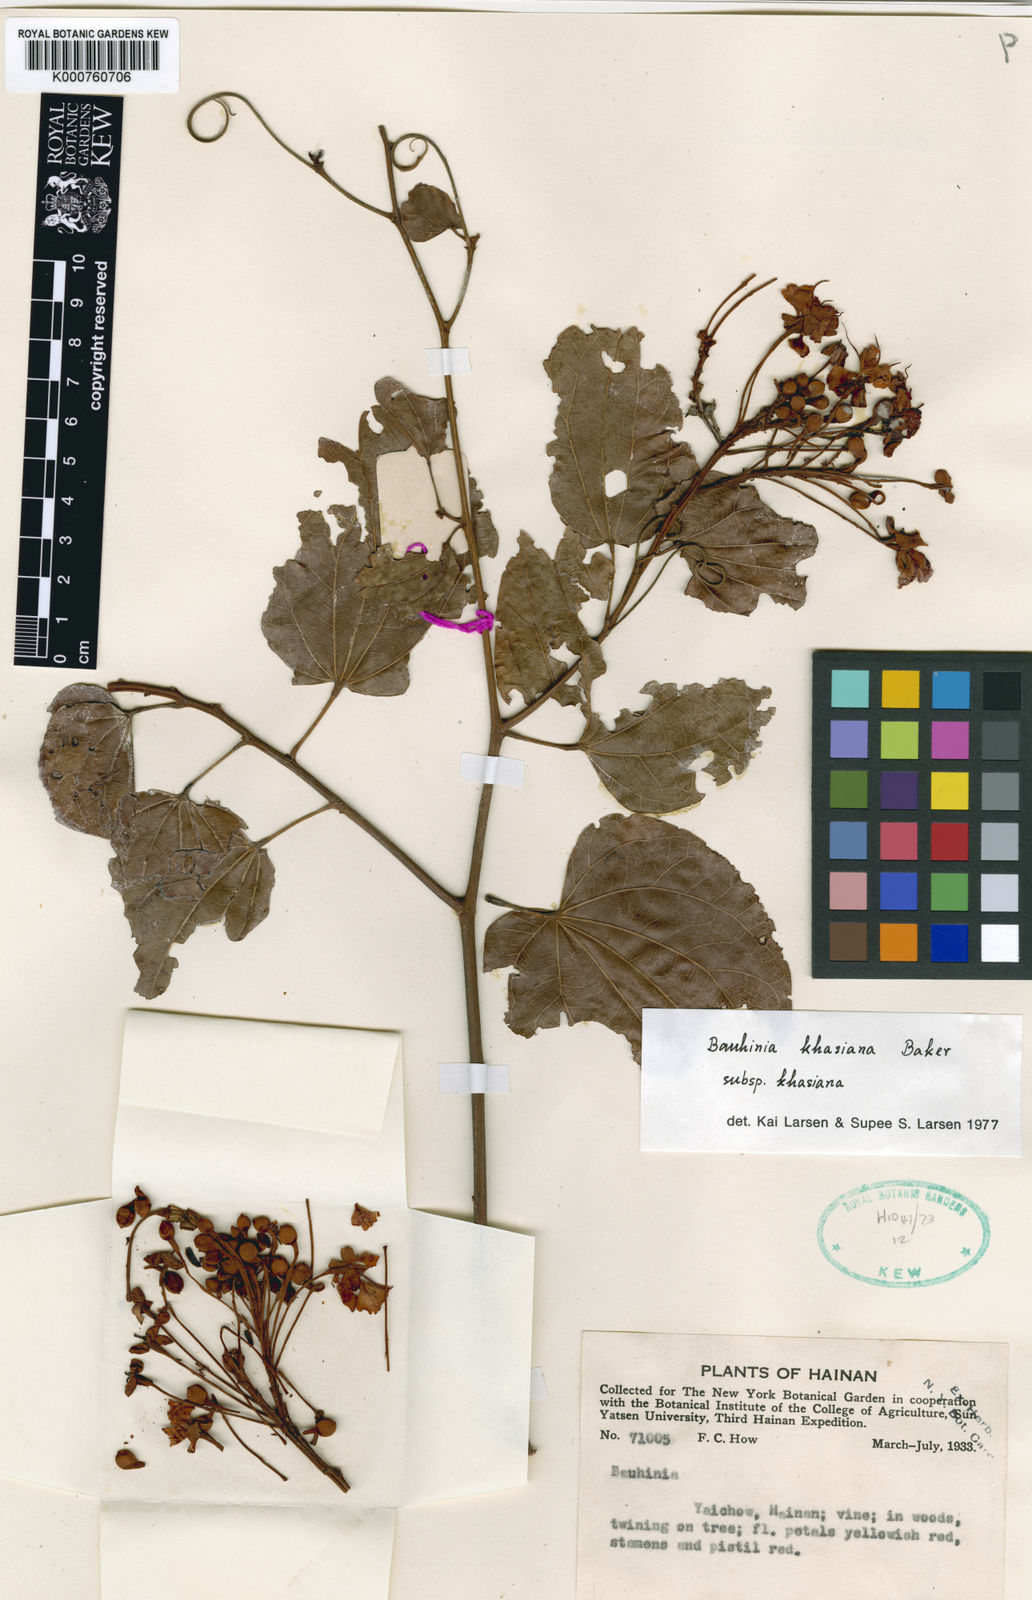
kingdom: Plantae
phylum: Tracheophyta
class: Magnoliopsida
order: Fabales
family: Fabaceae
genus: Phanera
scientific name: Phanera khasiana
